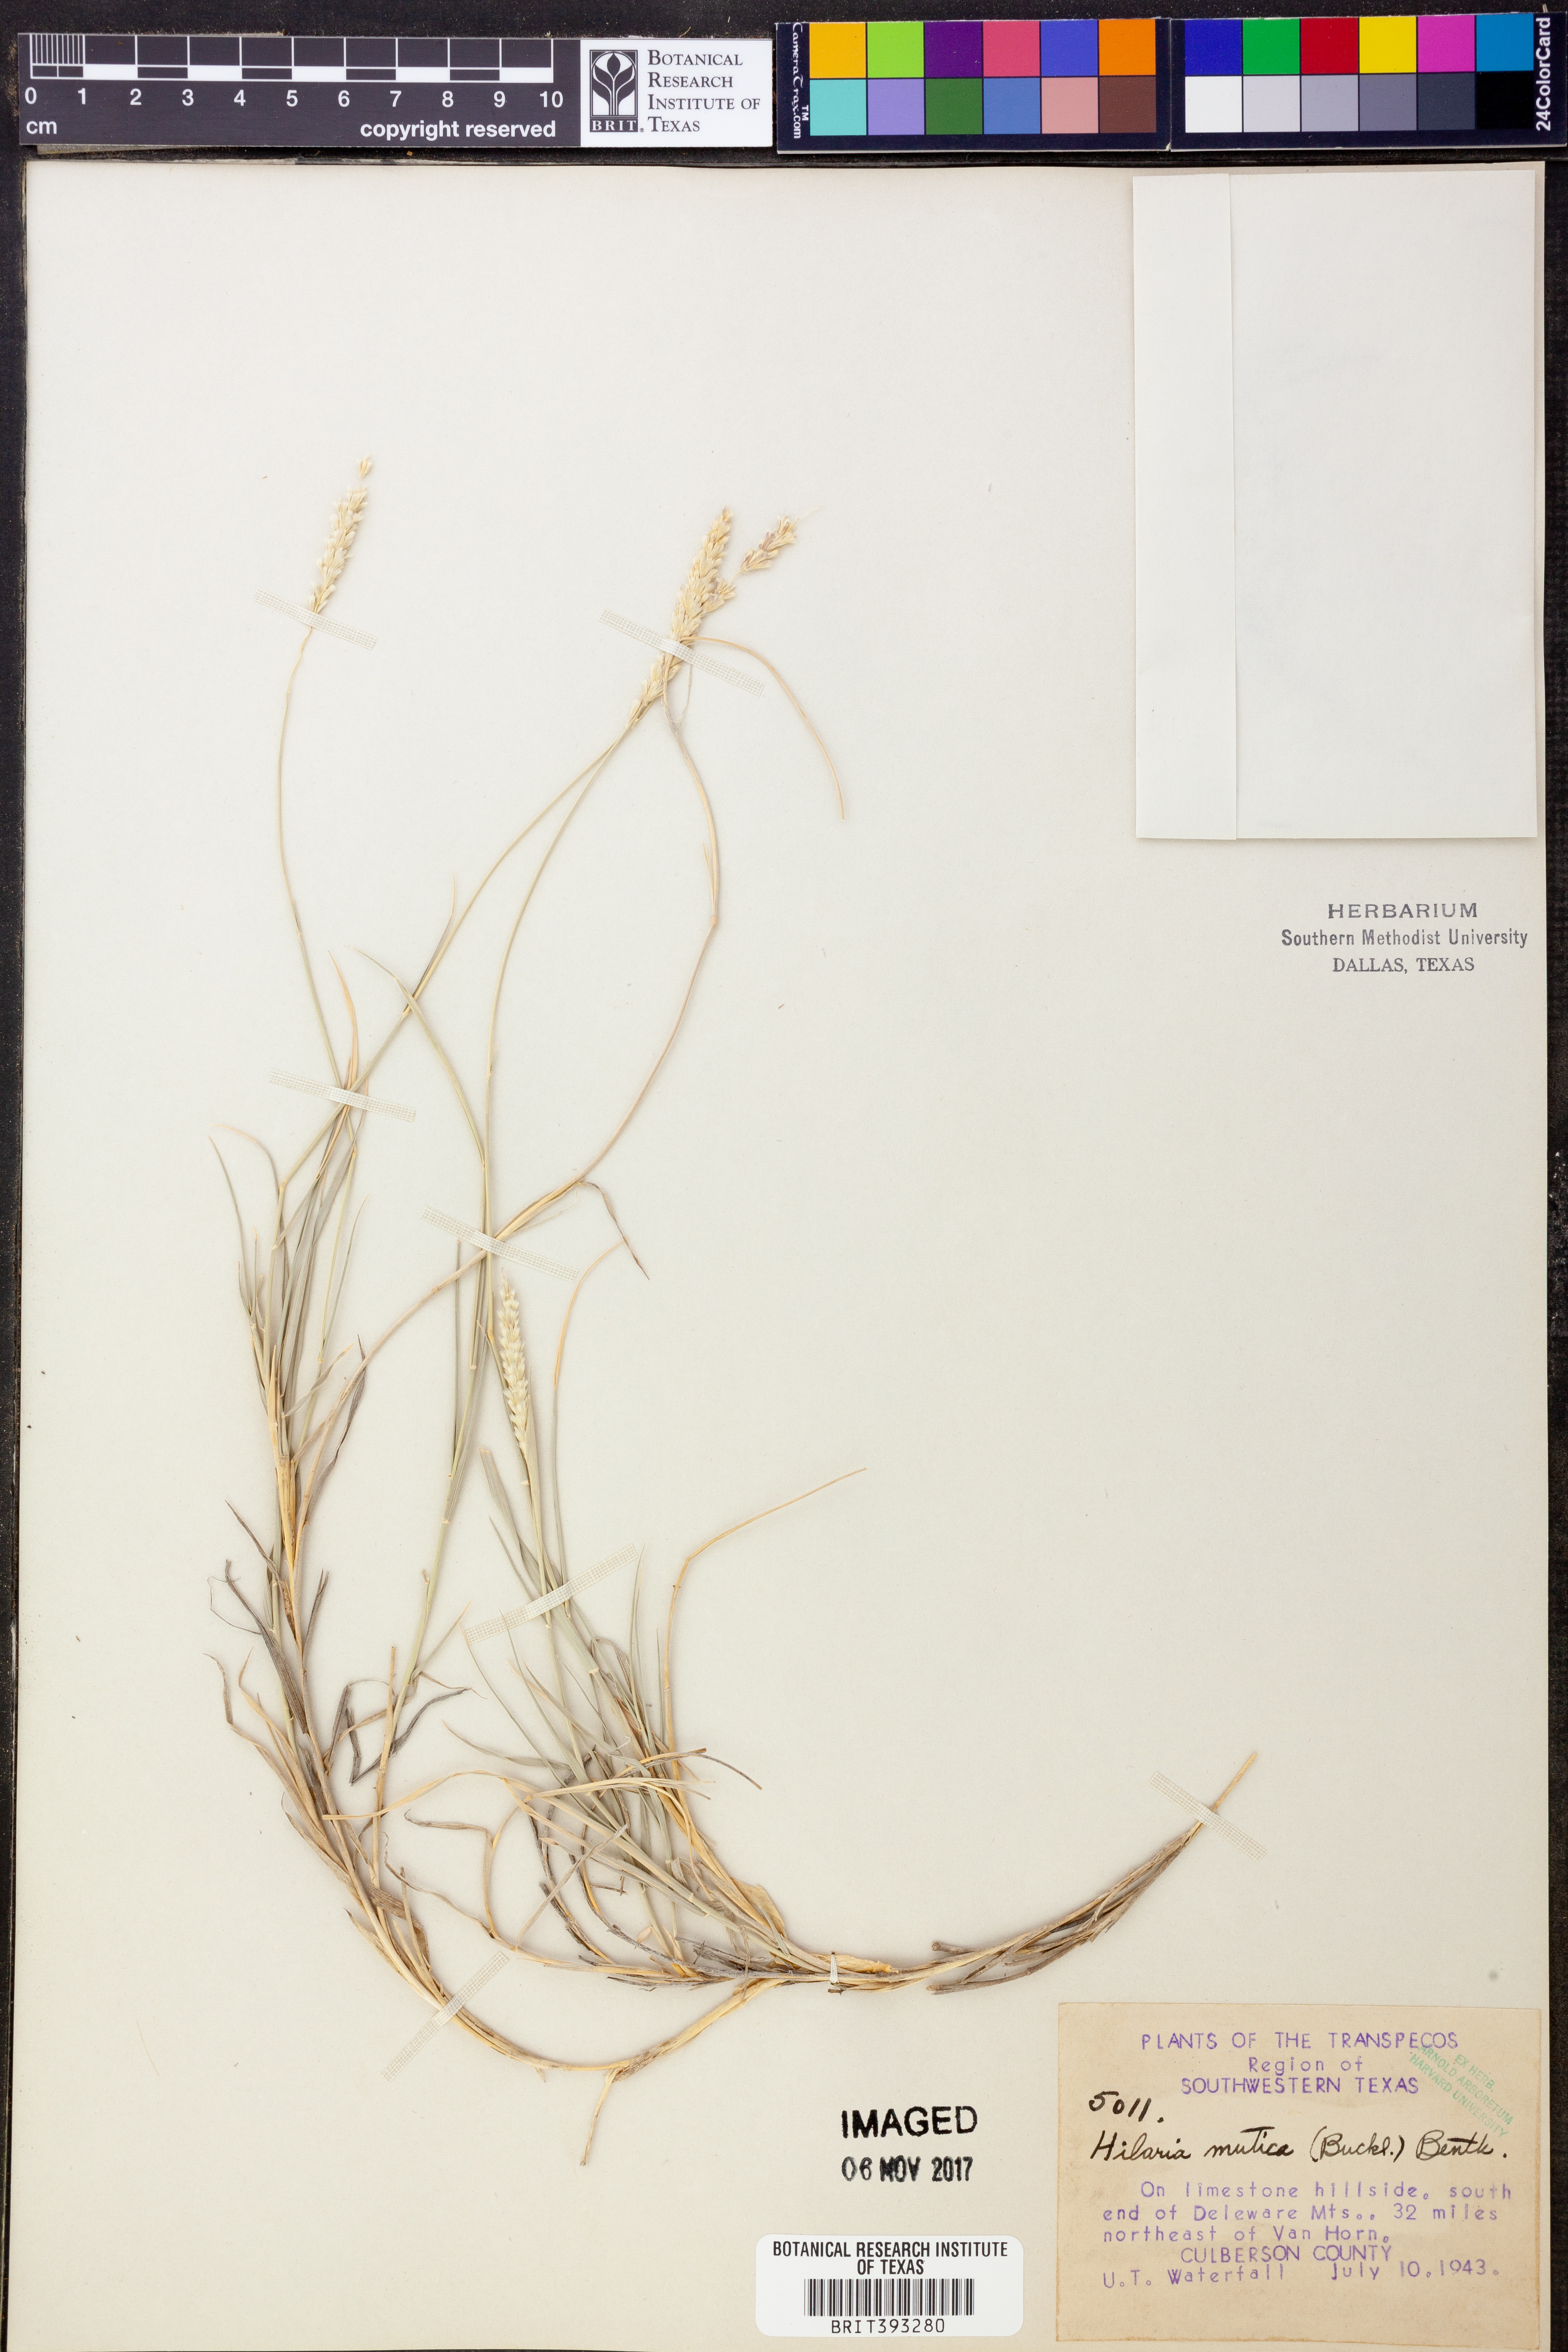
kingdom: Plantae
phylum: Tracheophyta
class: Liliopsida
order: Poales
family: Poaceae
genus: Hilaria
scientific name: Hilaria mutica
